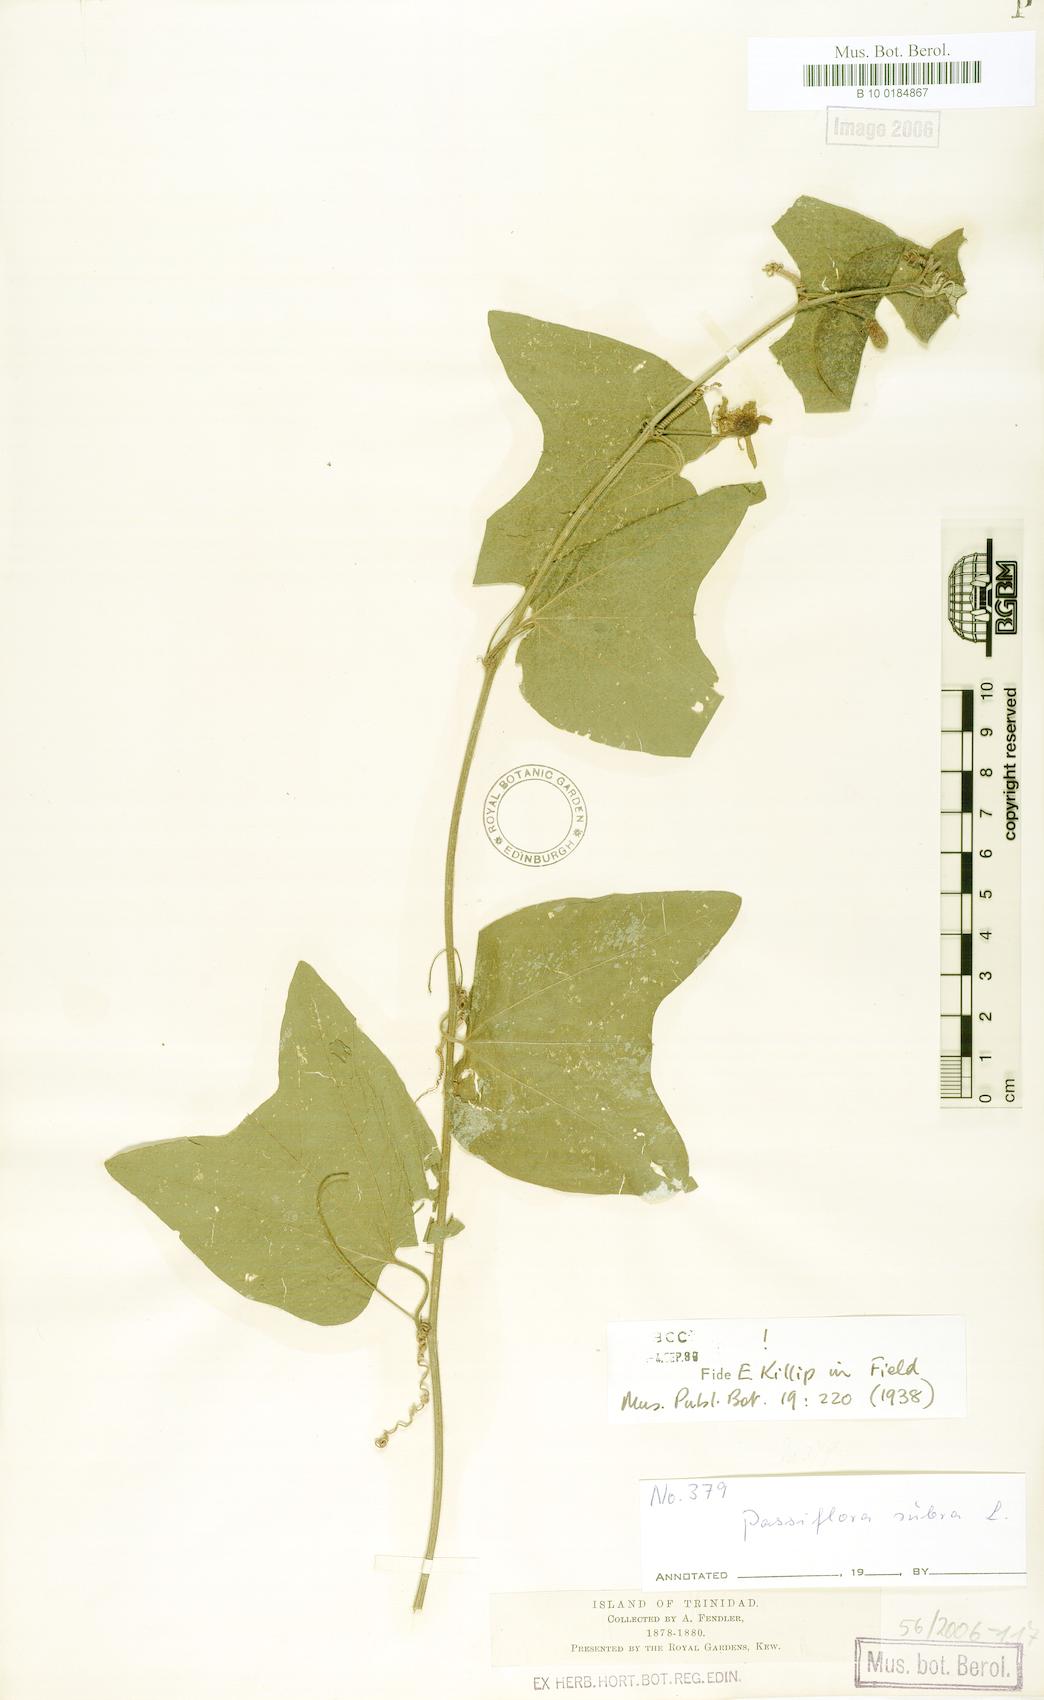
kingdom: Plantae
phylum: Tracheophyta
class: Magnoliopsida
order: Malpighiales
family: Passifloraceae
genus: Passiflora
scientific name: Passiflora rubra
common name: Snakeberry vine
